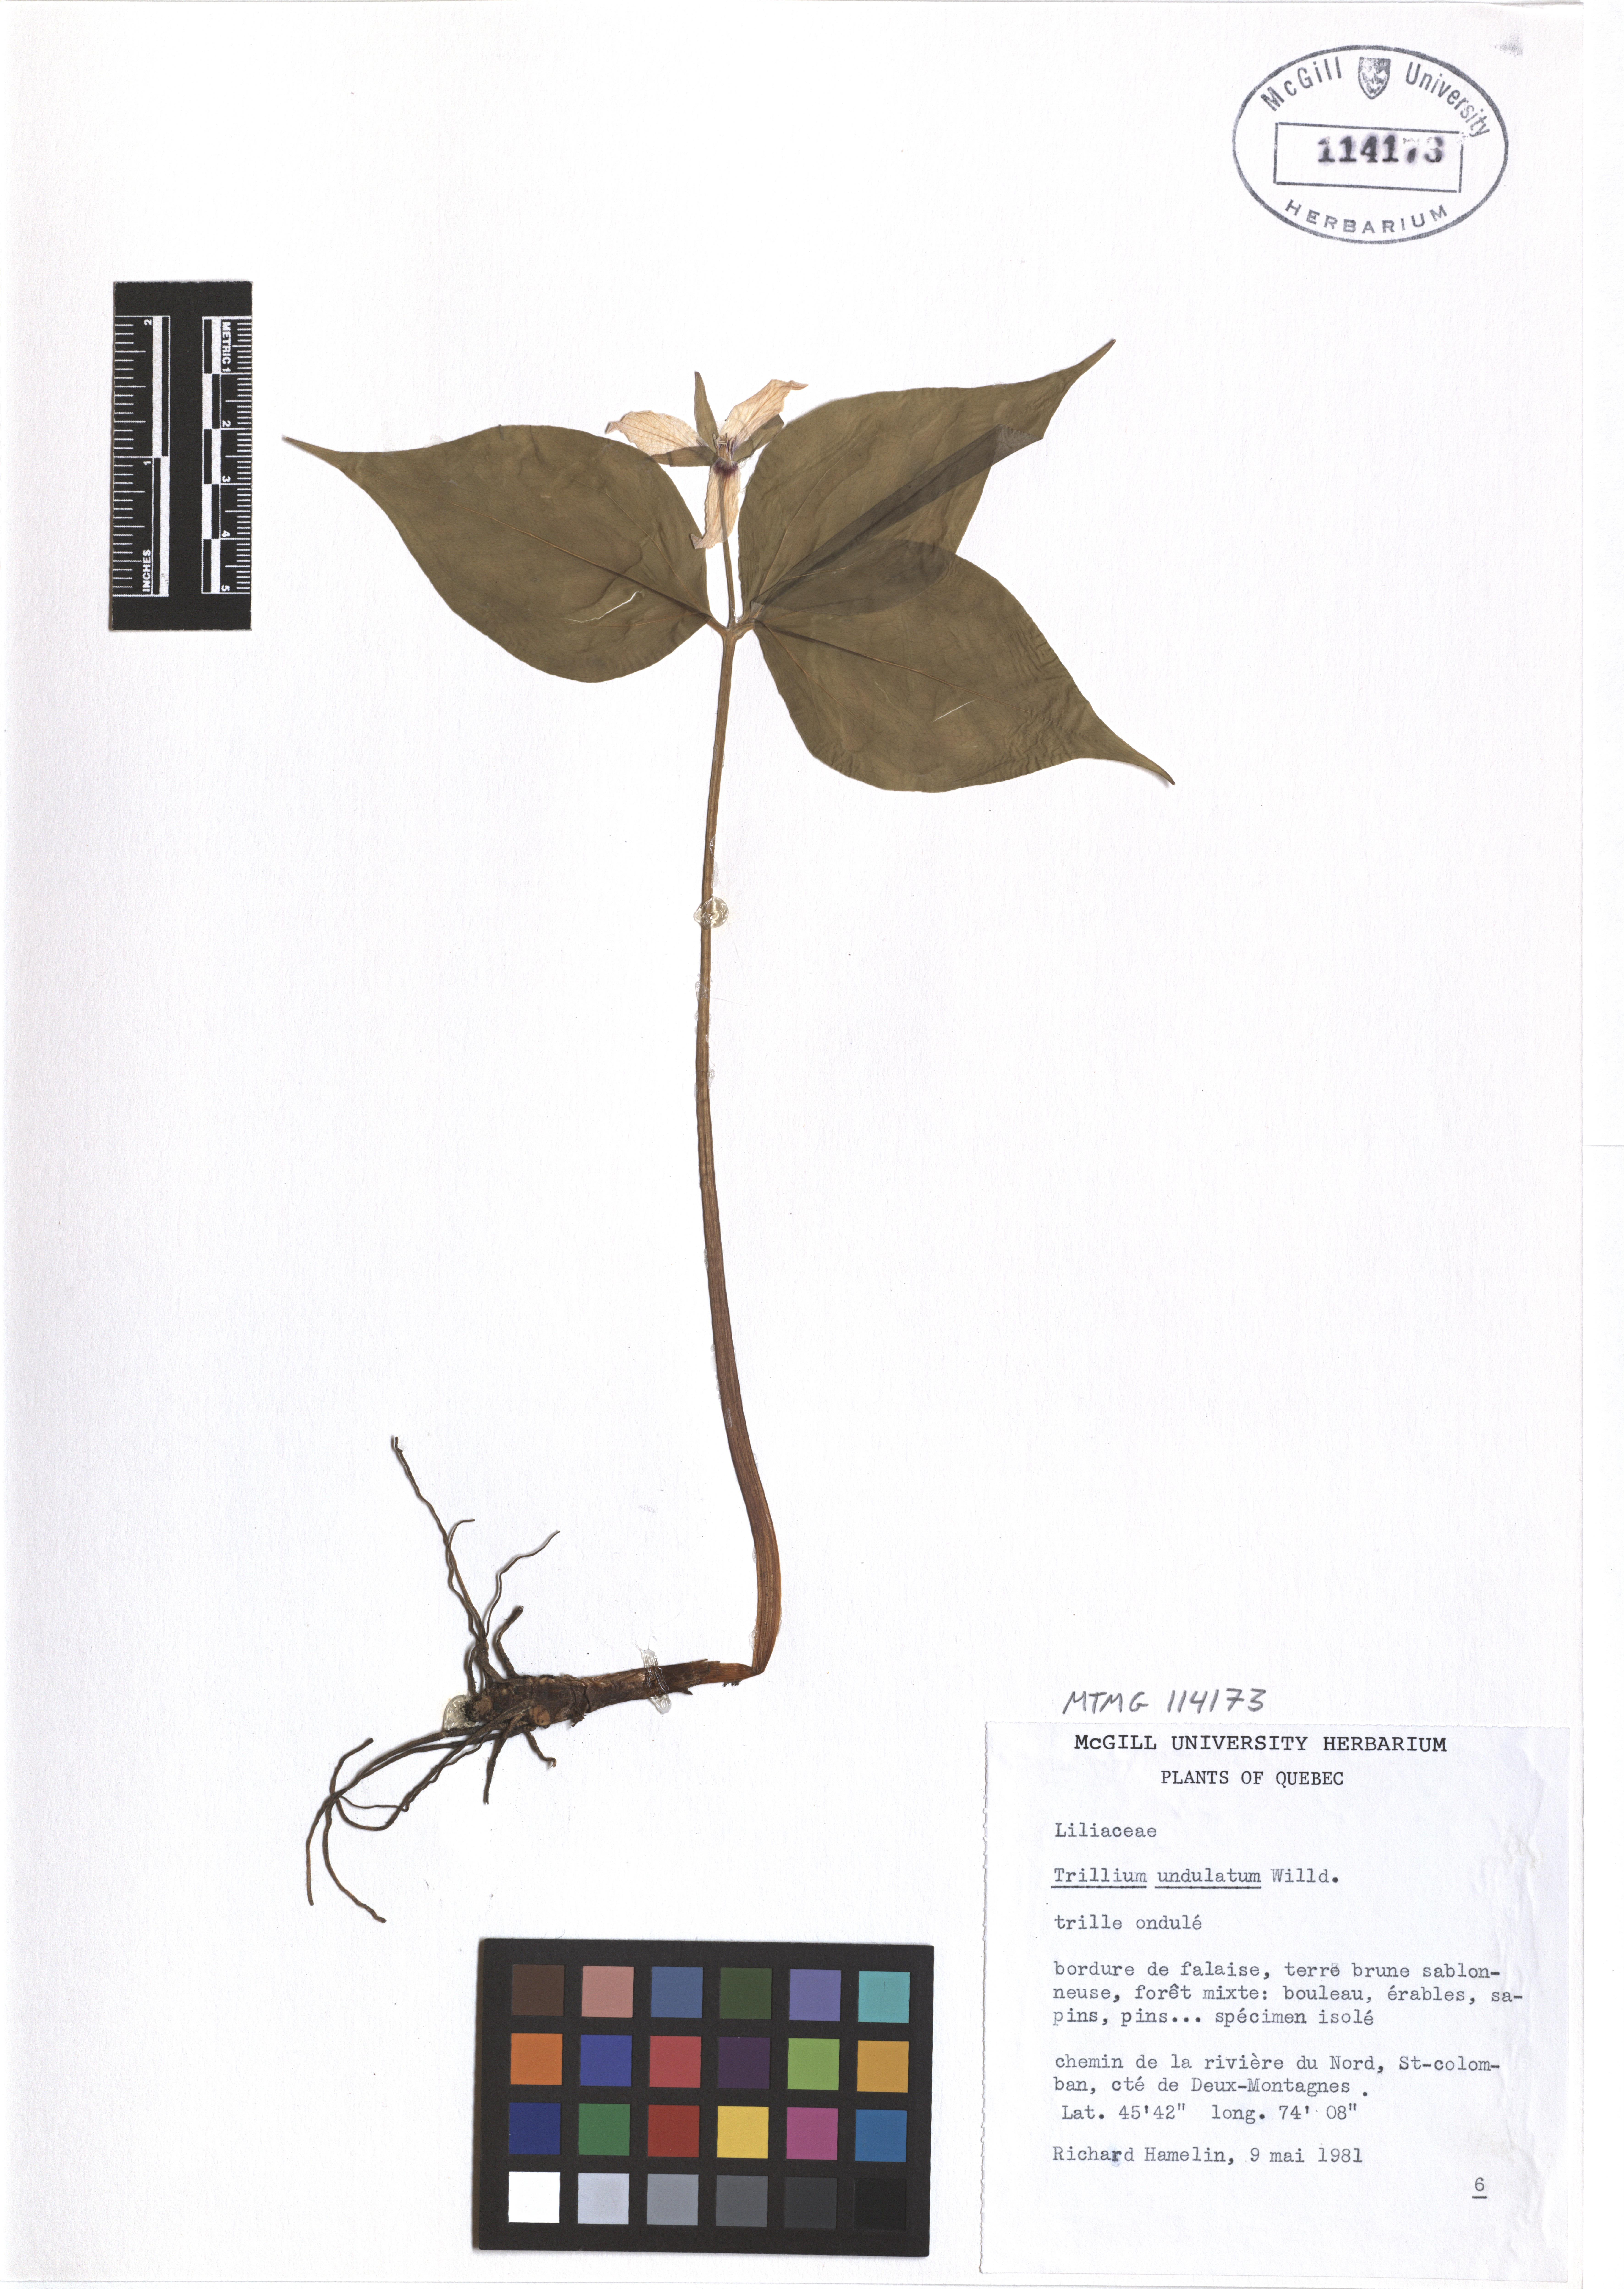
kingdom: Plantae
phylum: Tracheophyta
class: Liliopsida
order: Liliales
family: Melanthiaceae
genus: Trillium
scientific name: Trillium undulatum
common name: Paint trillium
